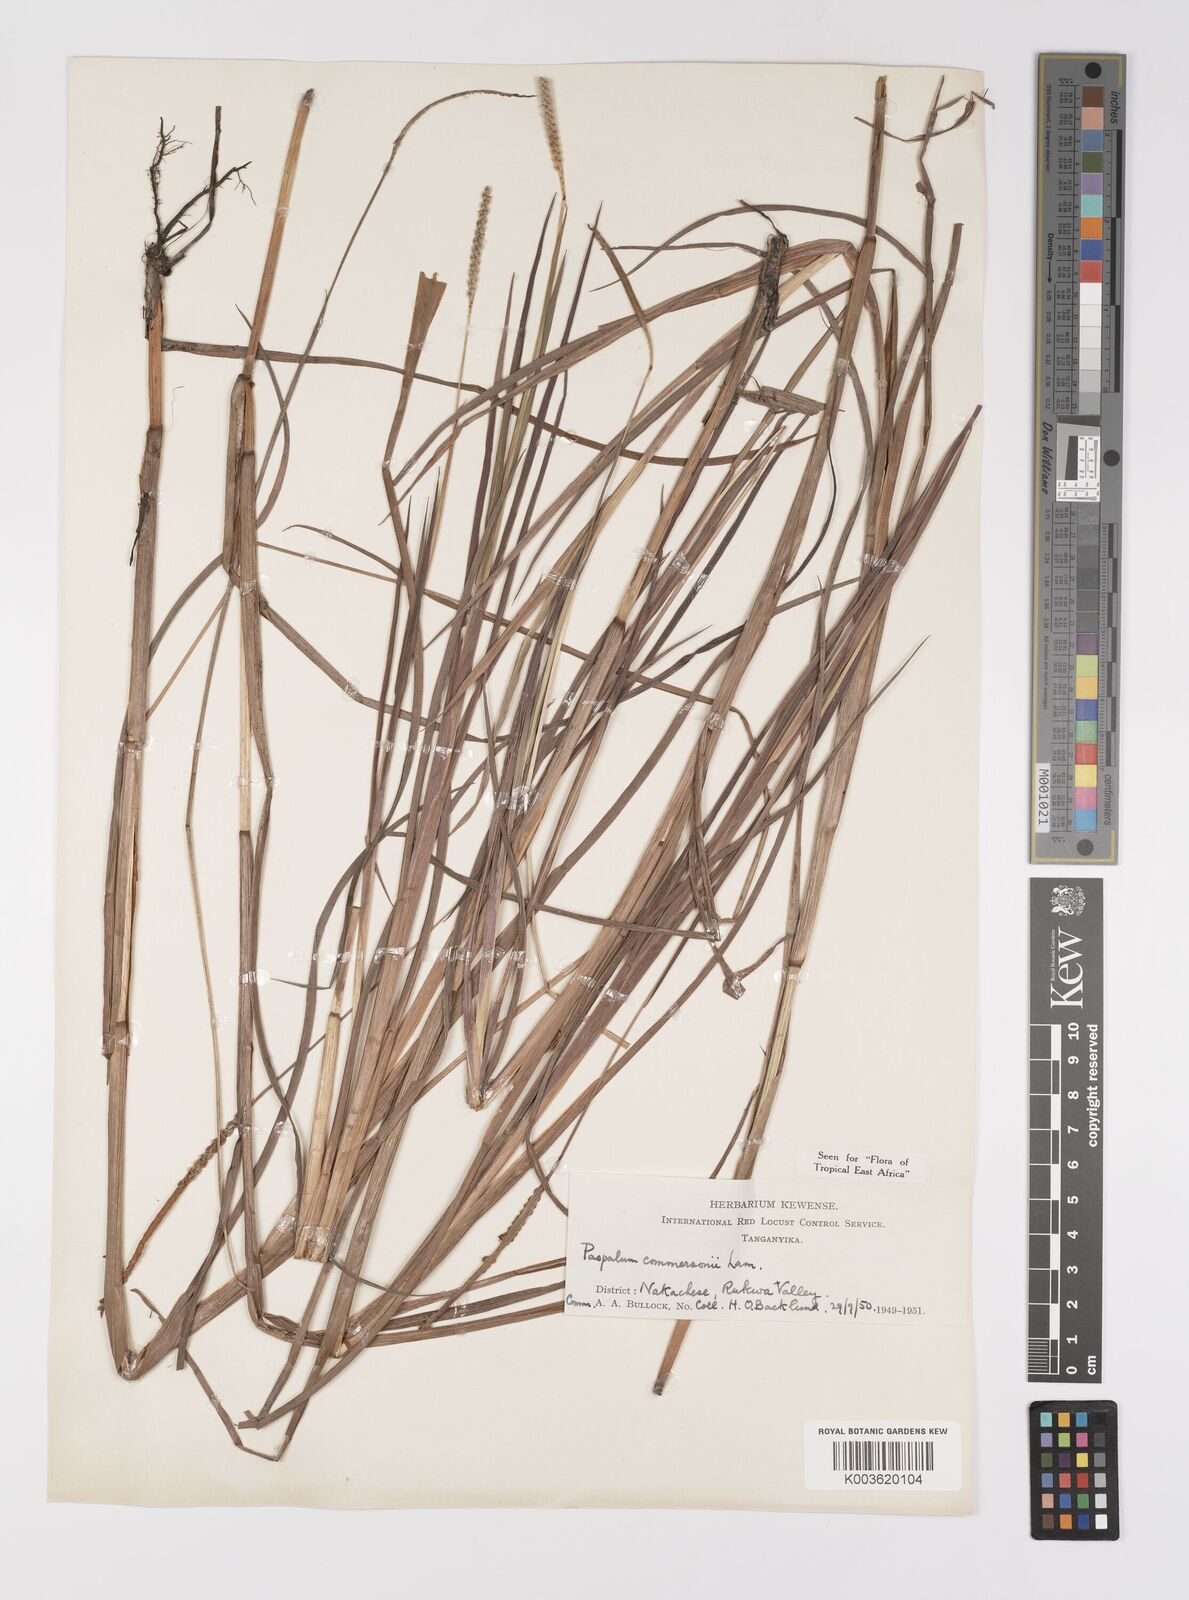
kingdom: Plantae
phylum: Tracheophyta
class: Liliopsida
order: Poales
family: Poaceae
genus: Paspalum
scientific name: Paspalum scrobiculatum
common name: Kodo millet
